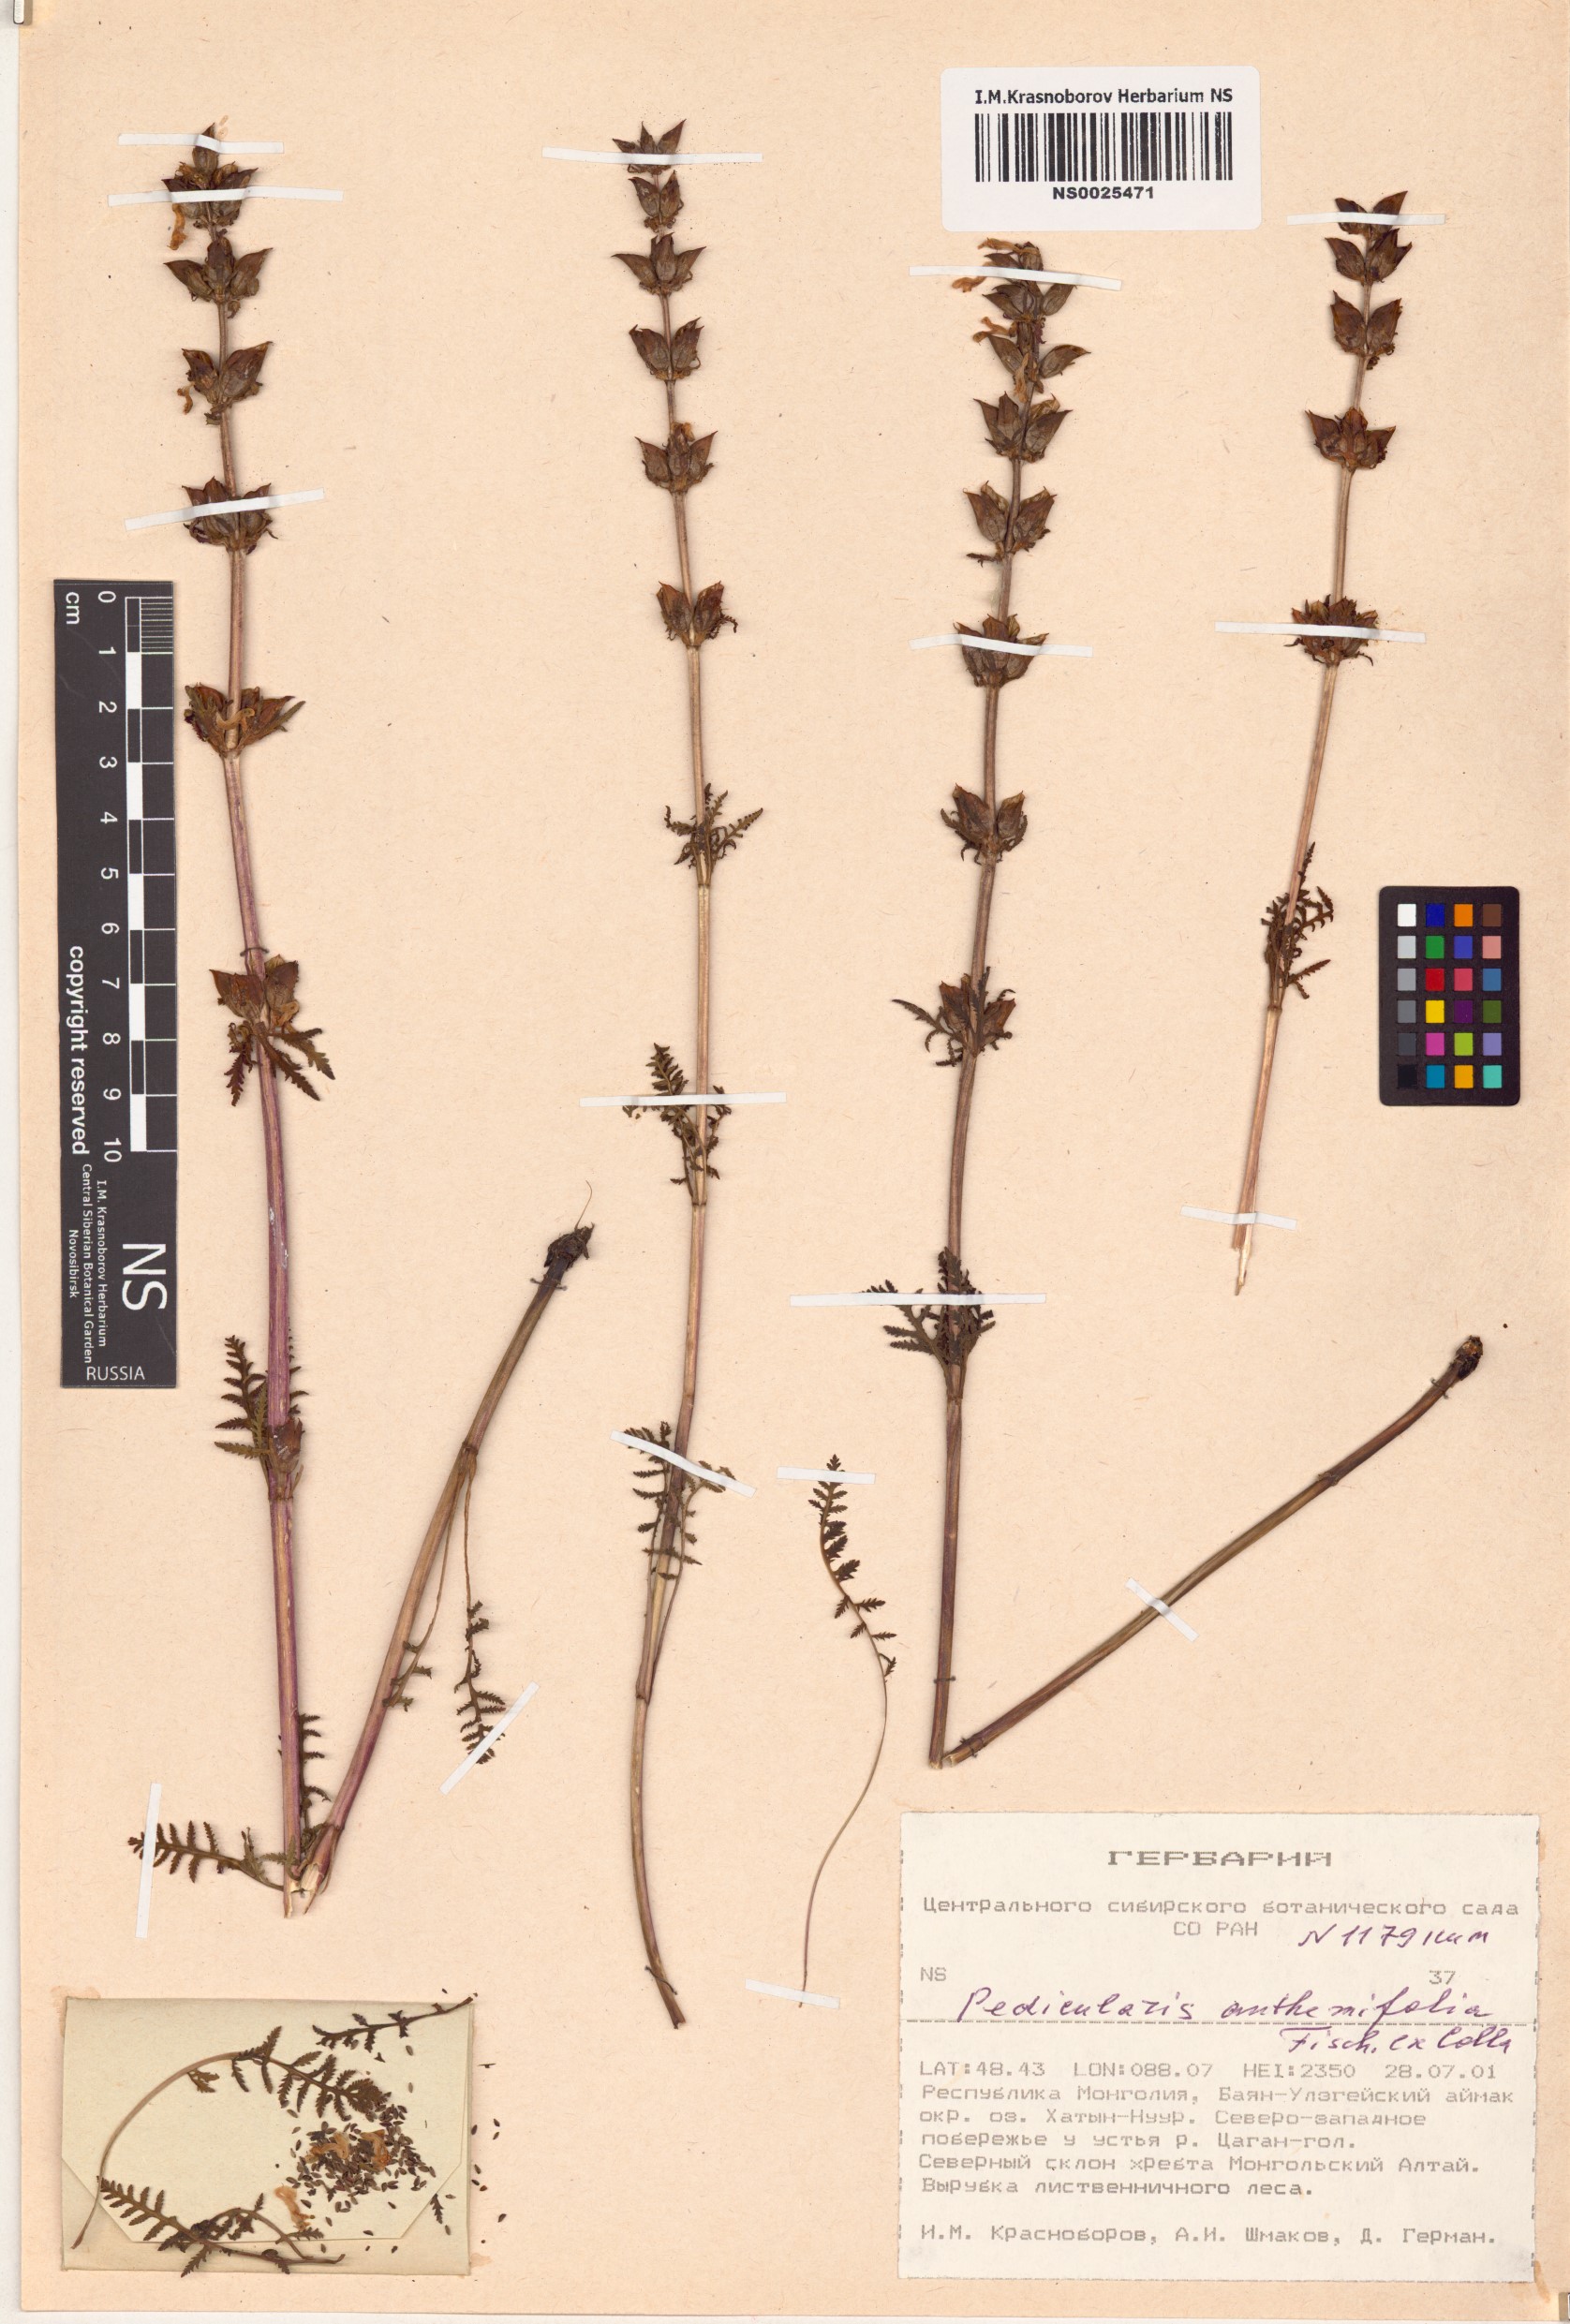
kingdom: Plantae
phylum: Tracheophyta
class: Magnoliopsida
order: Lamiales
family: Orobanchaceae
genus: Pedicularis
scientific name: Pedicularis anthemifolia
